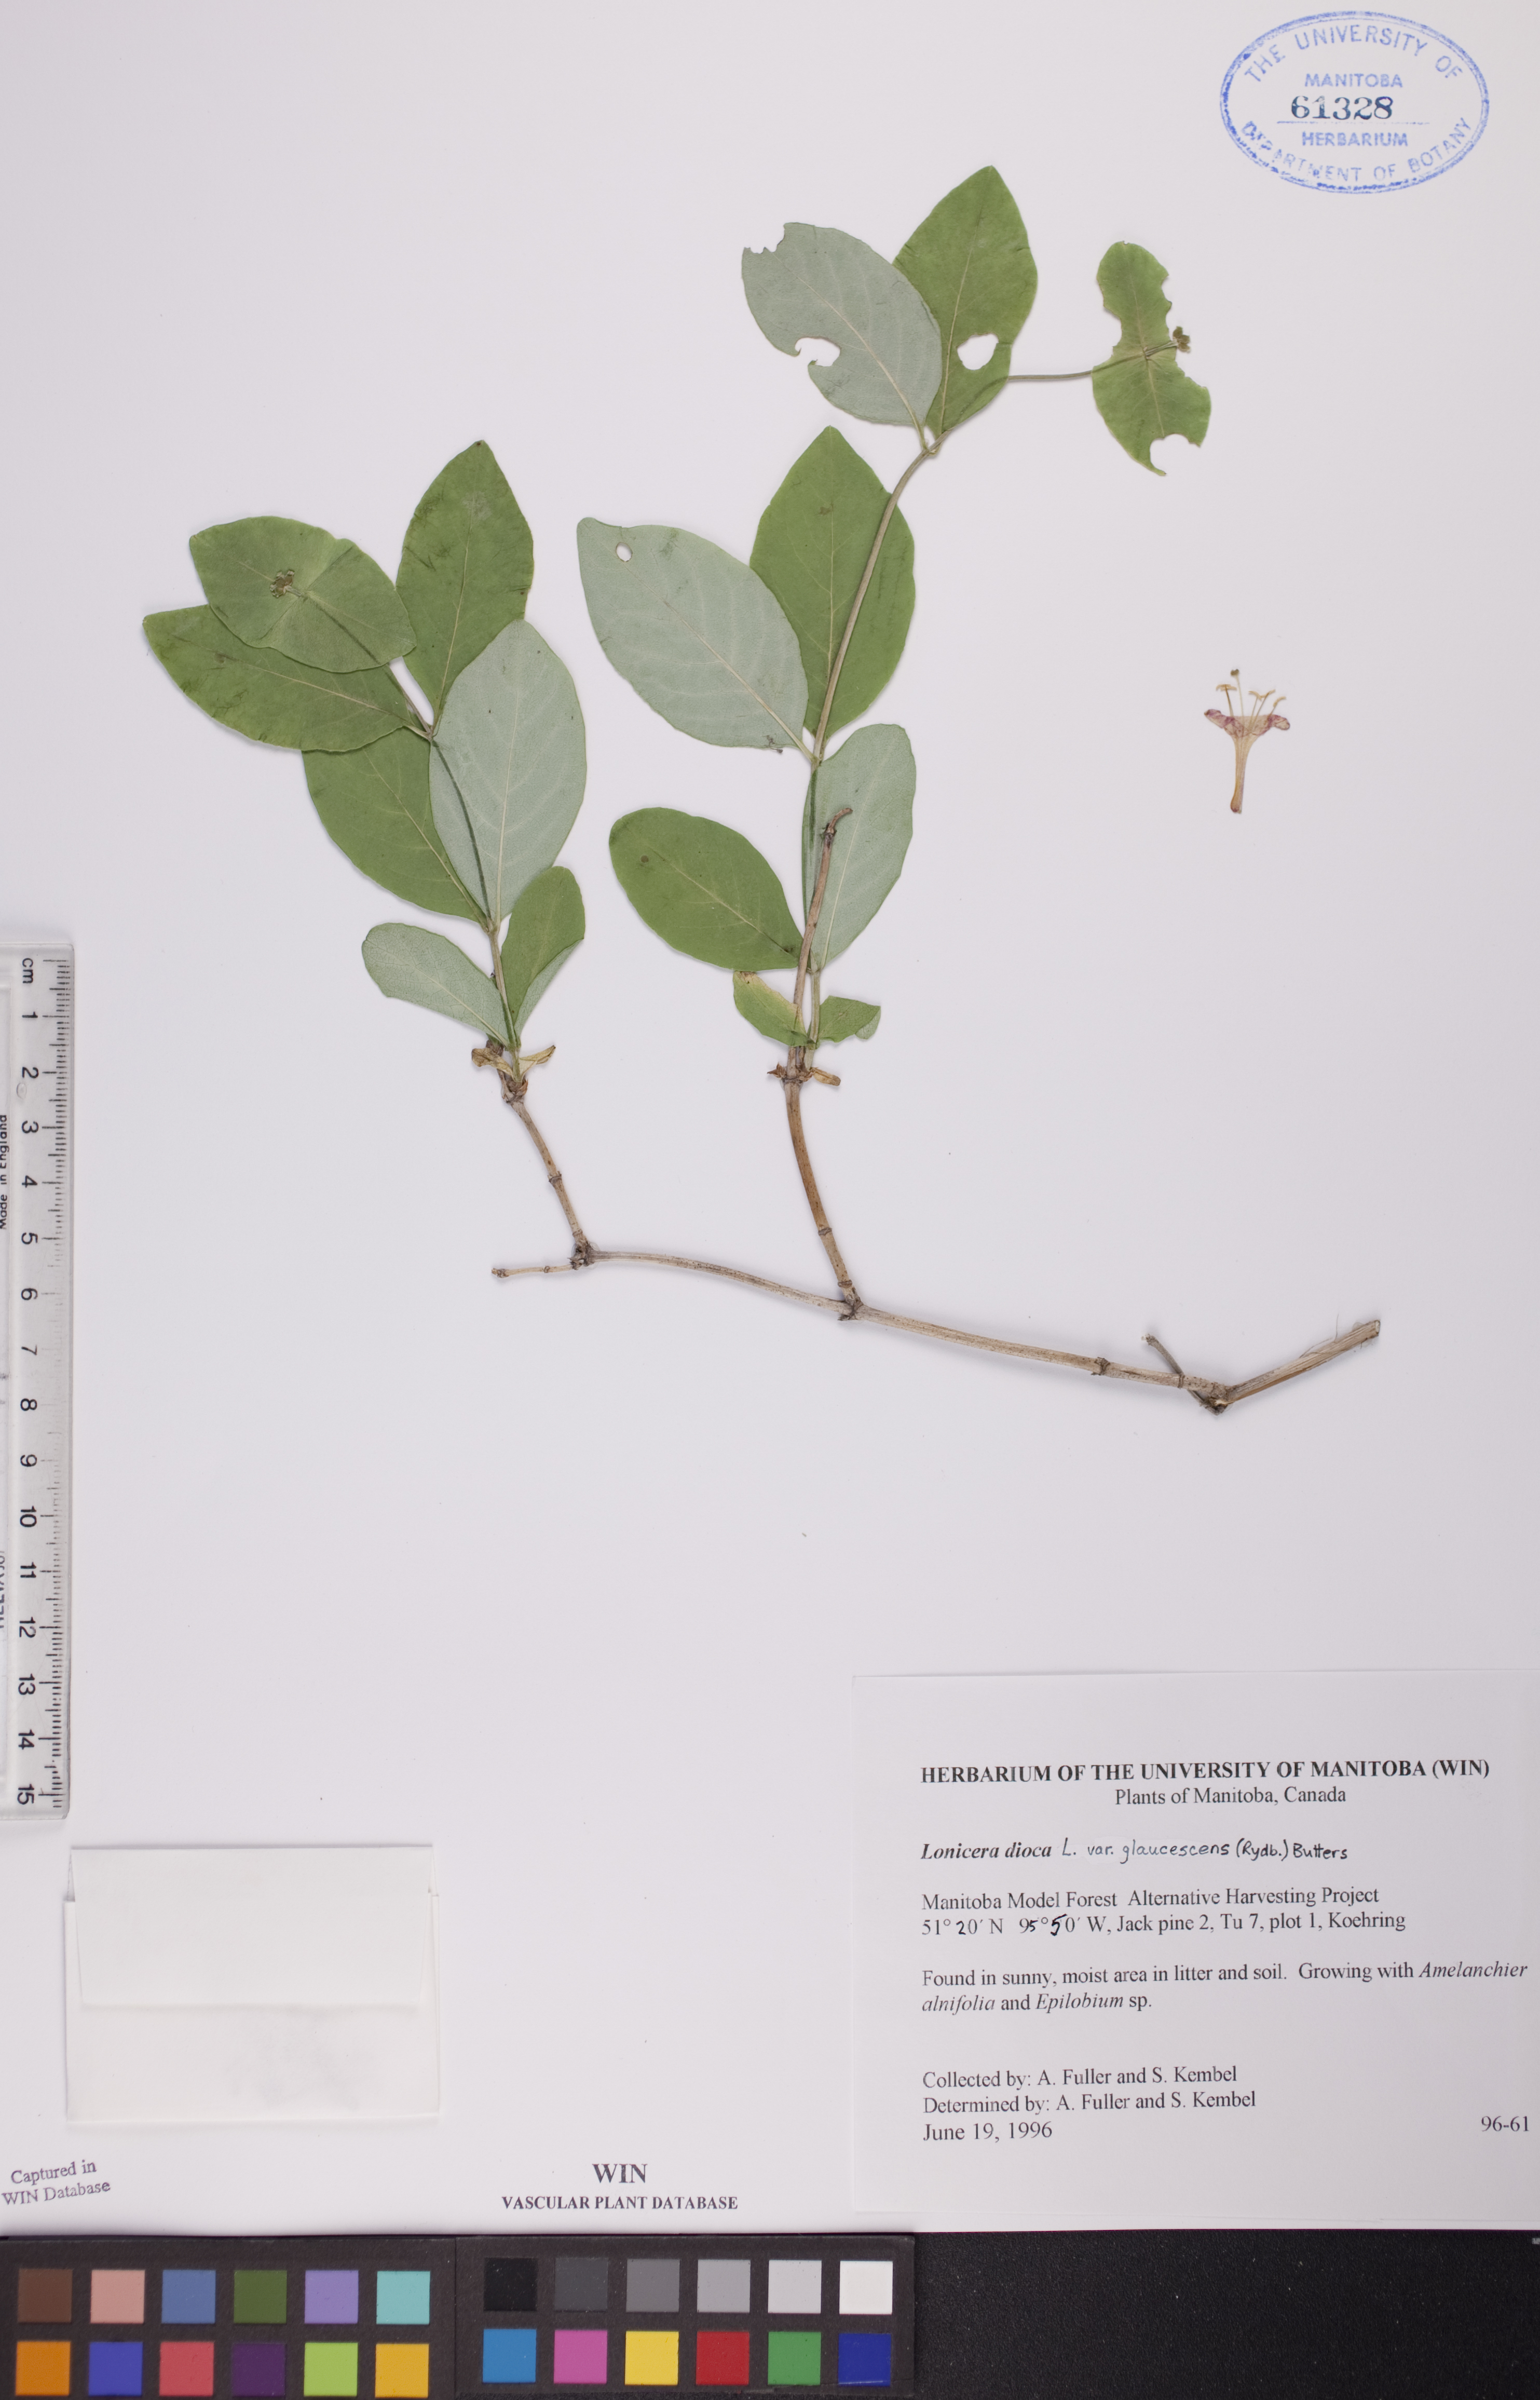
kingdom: Plantae
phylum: Tracheophyta
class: Magnoliopsida
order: Dipsacales
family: Caprifoliaceae
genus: Lonicera
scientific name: Lonicera dioica
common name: Limber honeysuckle
